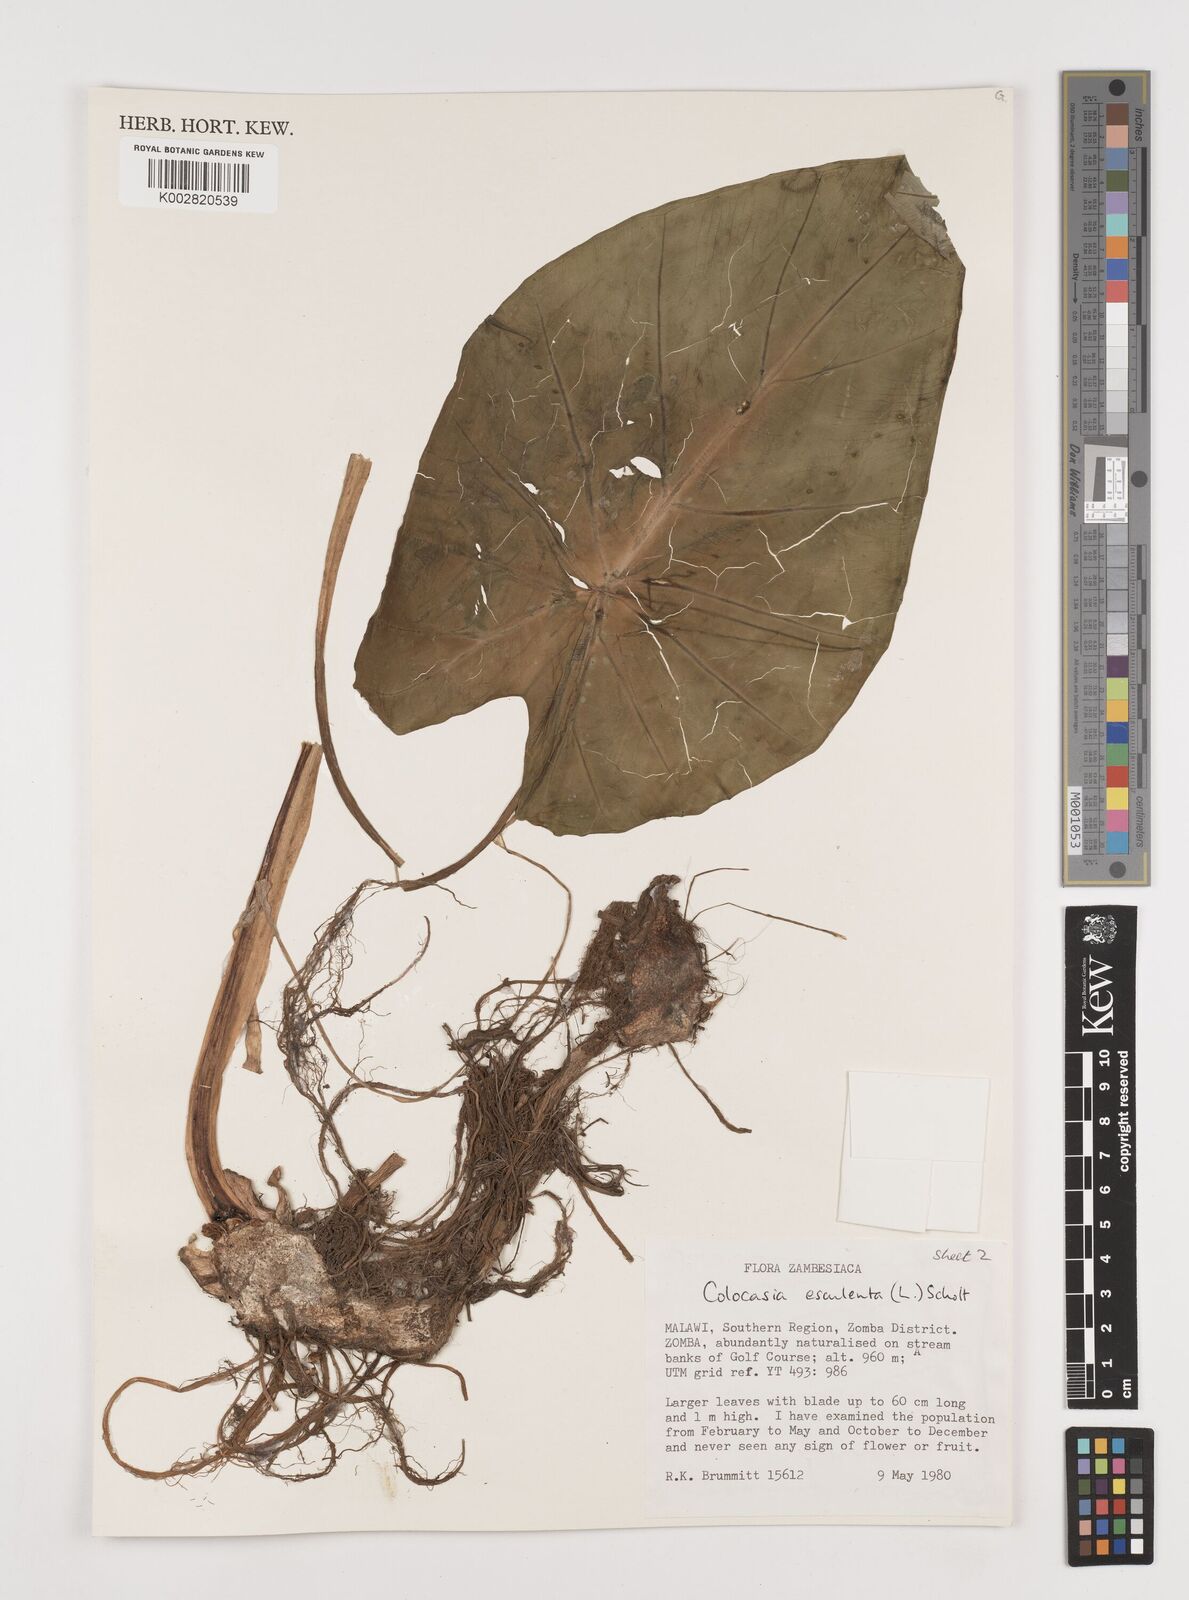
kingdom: Plantae
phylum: Tracheophyta
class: Liliopsida
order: Alismatales
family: Araceae
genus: Colocasia
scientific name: Colocasia esculenta
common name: Taro
